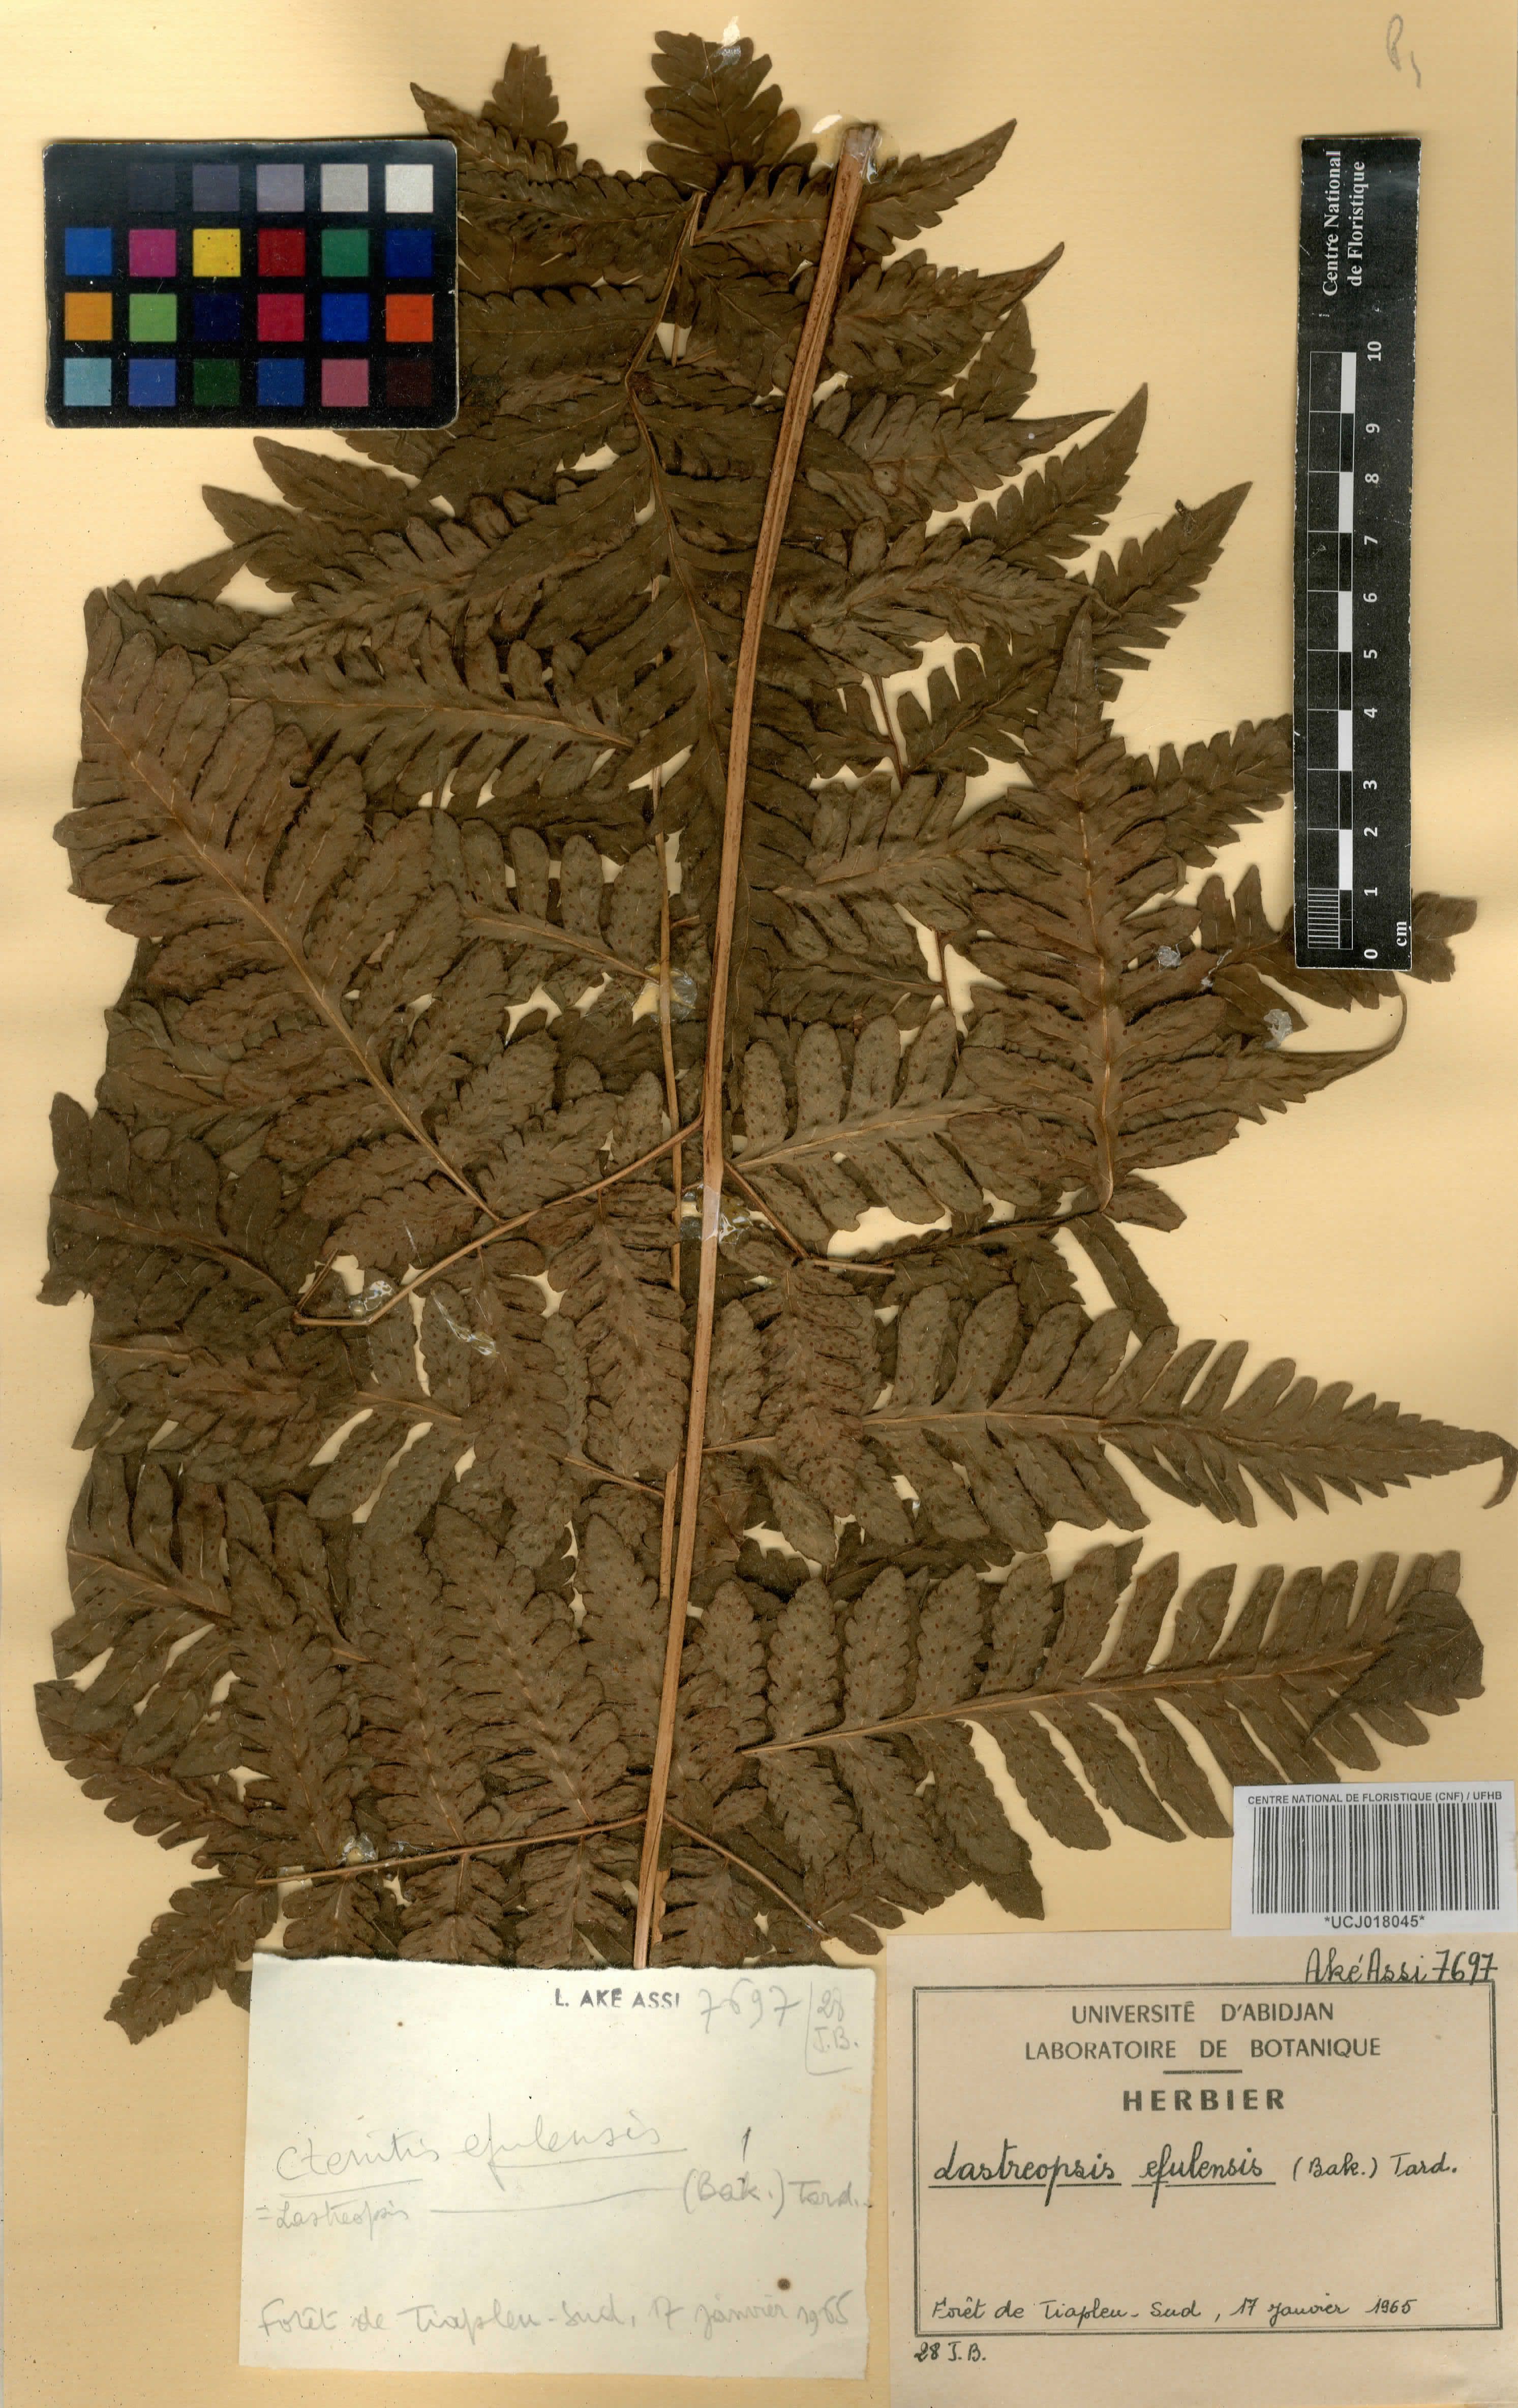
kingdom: Plantae
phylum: Tracheophyta
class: Polypodiopsida
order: Polypodiales
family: Dryopteridaceae
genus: Parapolystichum
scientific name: Parapolystichum currorii
